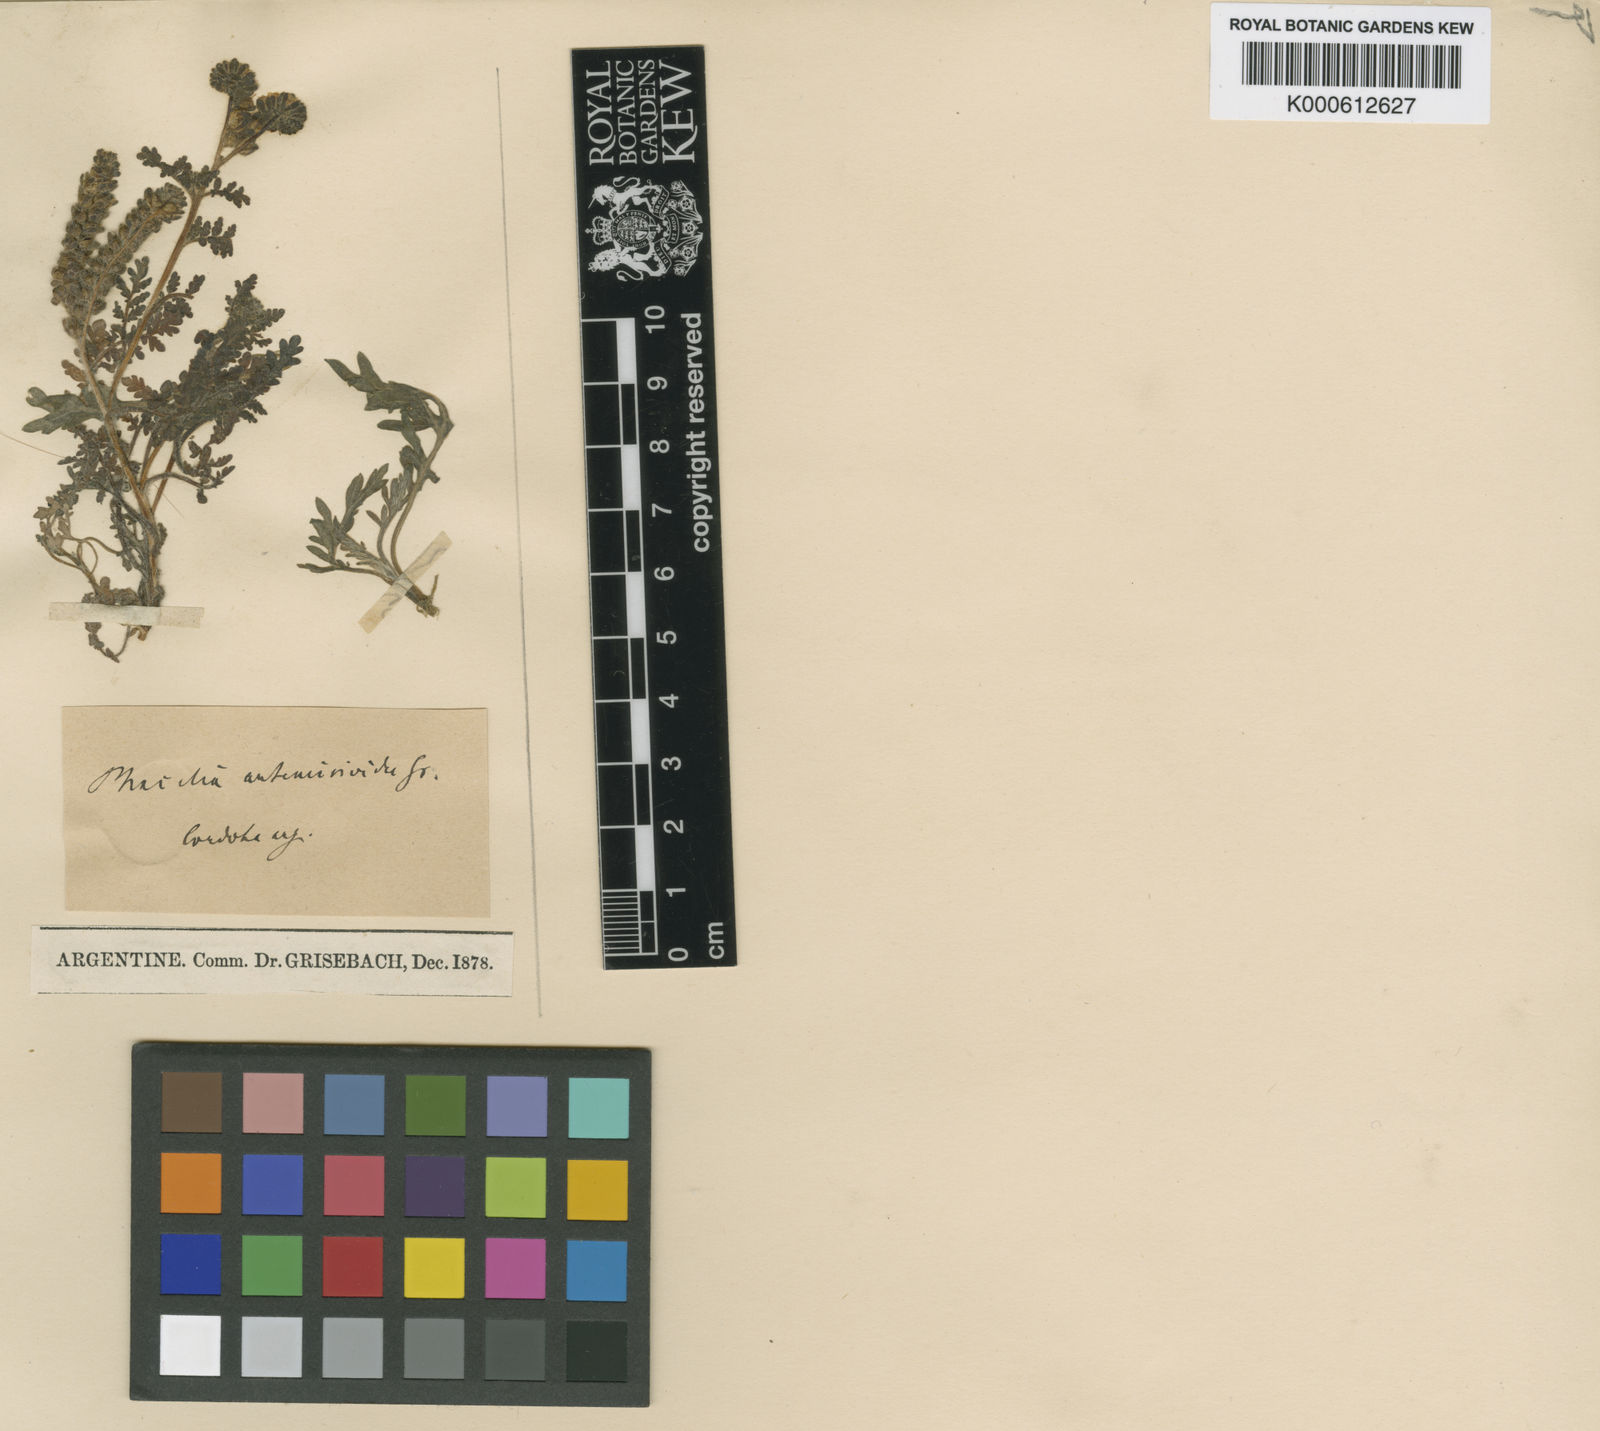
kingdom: Plantae
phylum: Tracheophyta
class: Magnoliopsida
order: Boraginales
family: Hydrophyllaceae
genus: Phacelia
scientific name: Phacelia artemisioides
